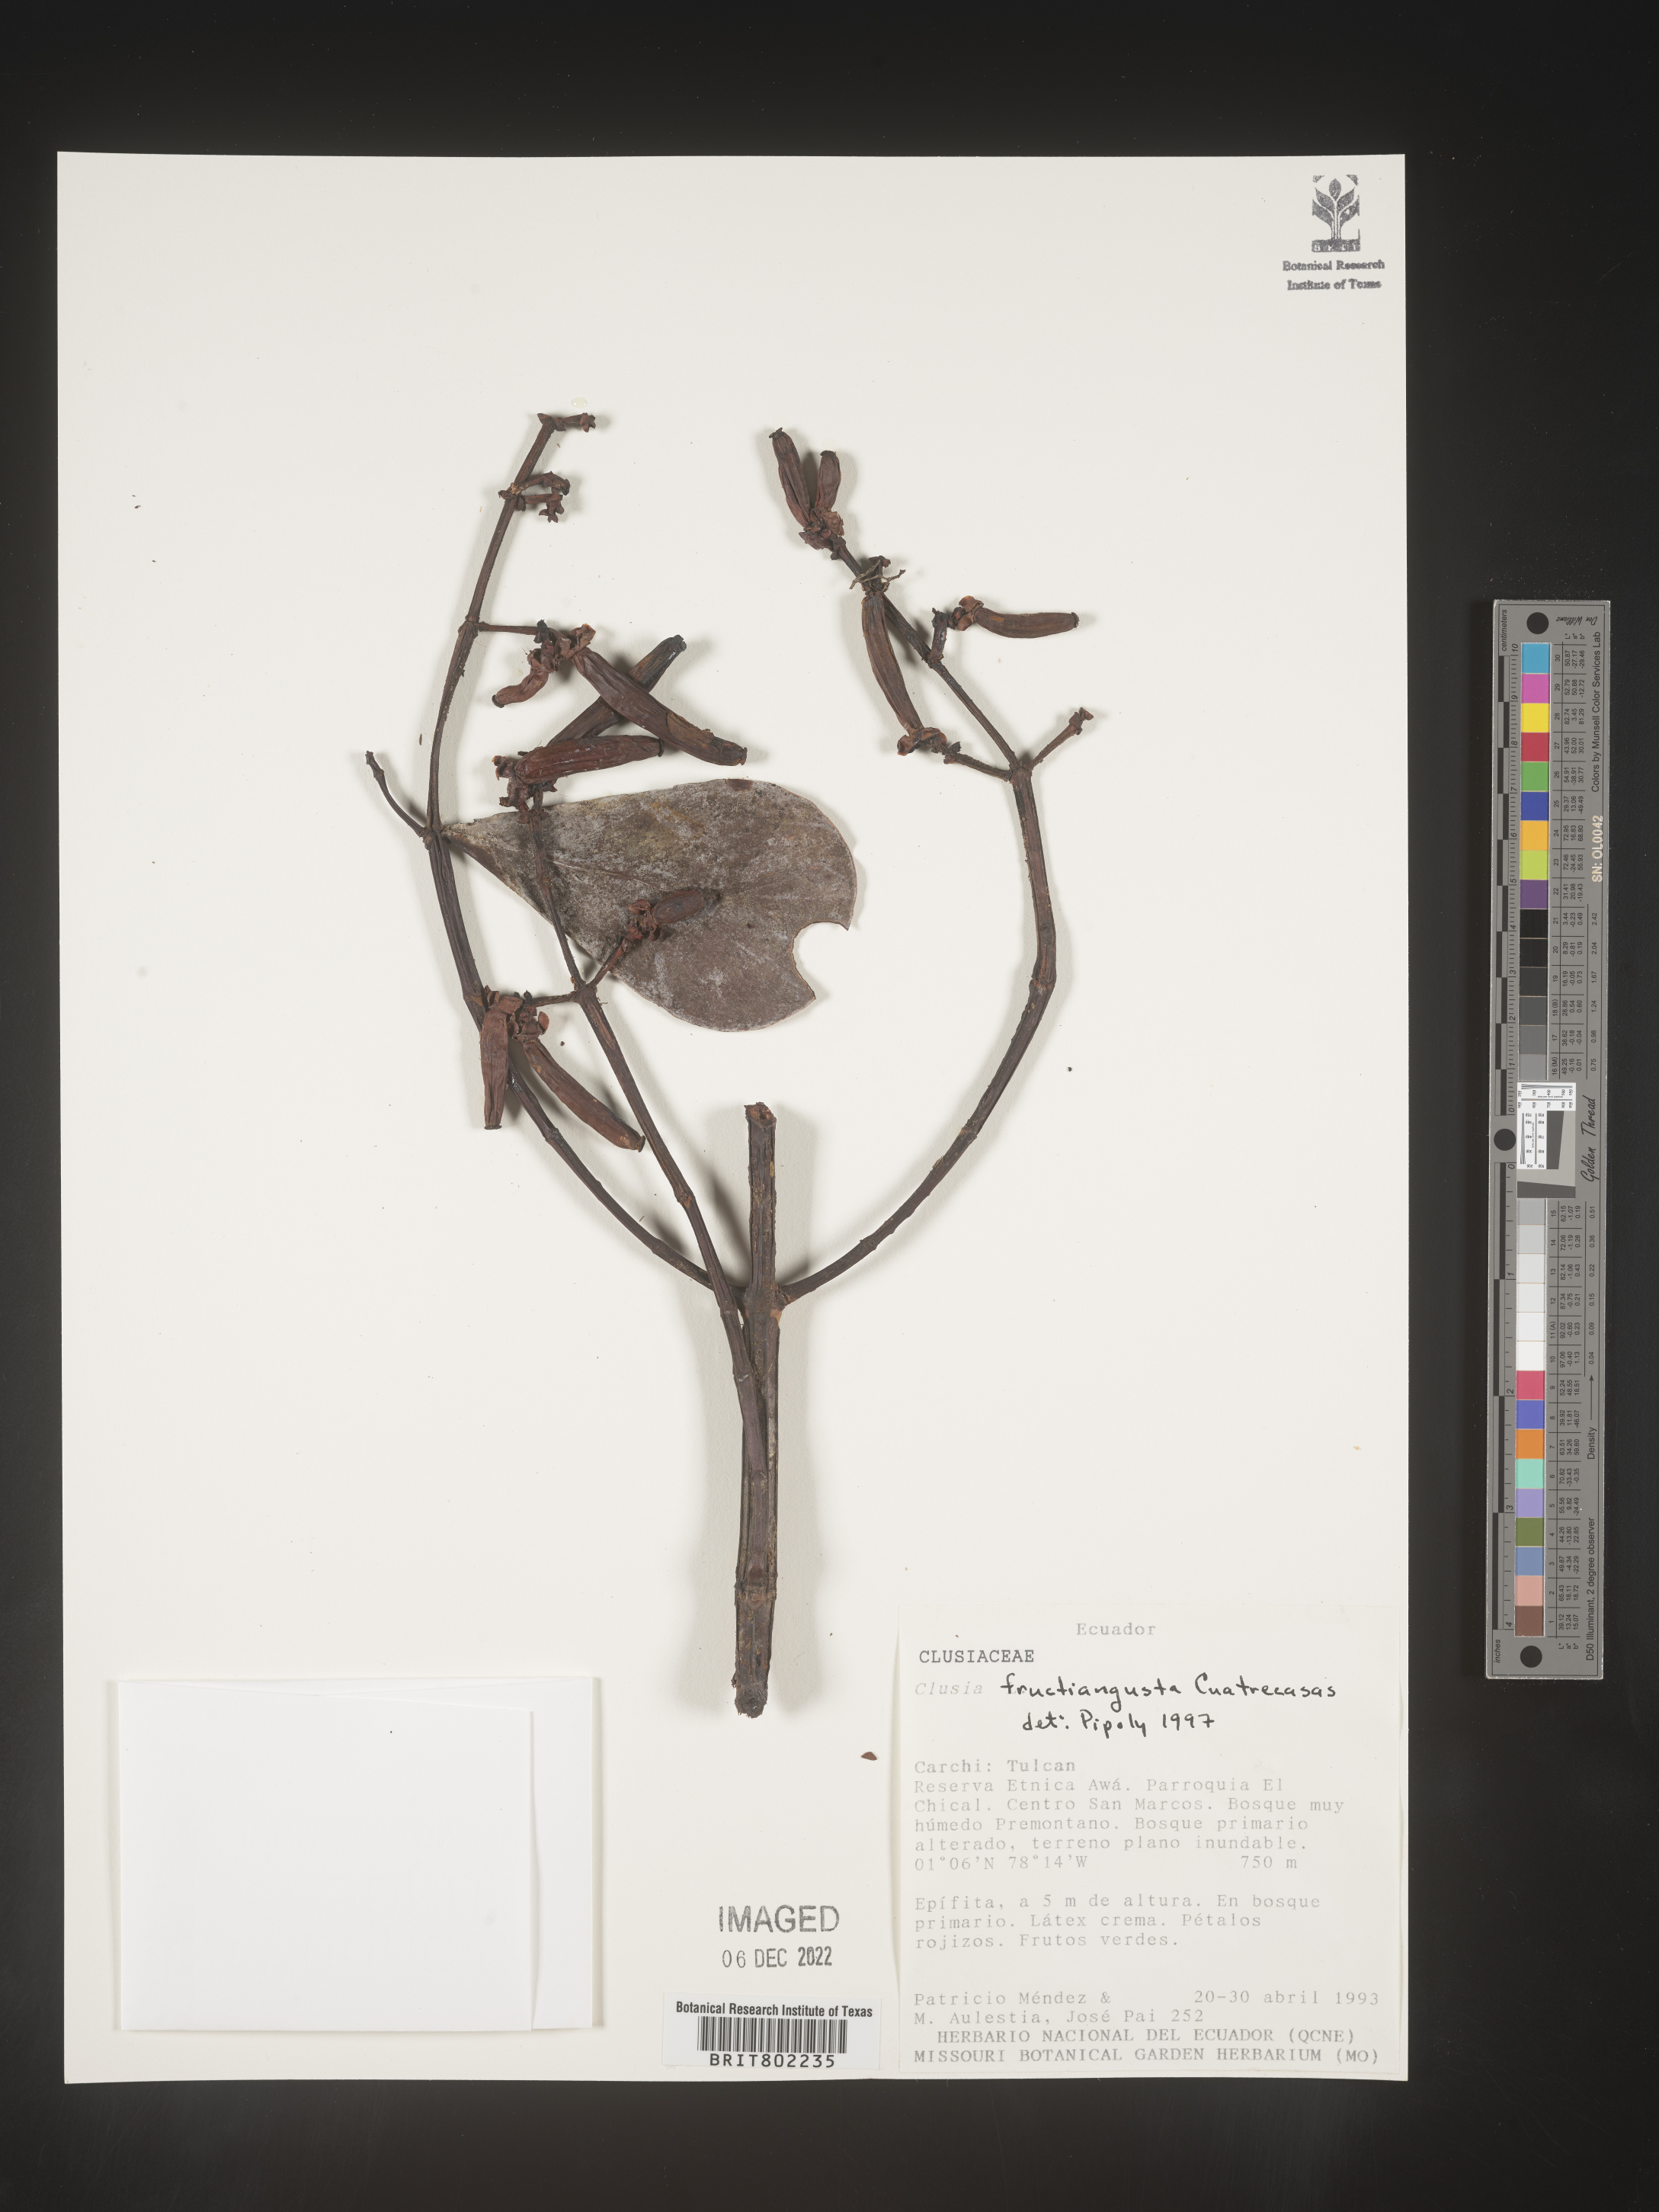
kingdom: Plantae
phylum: Tracheophyta
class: Magnoliopsida
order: Malpighiales
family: Clusiaceae
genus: Clusia
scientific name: Clusia fructiangusta
